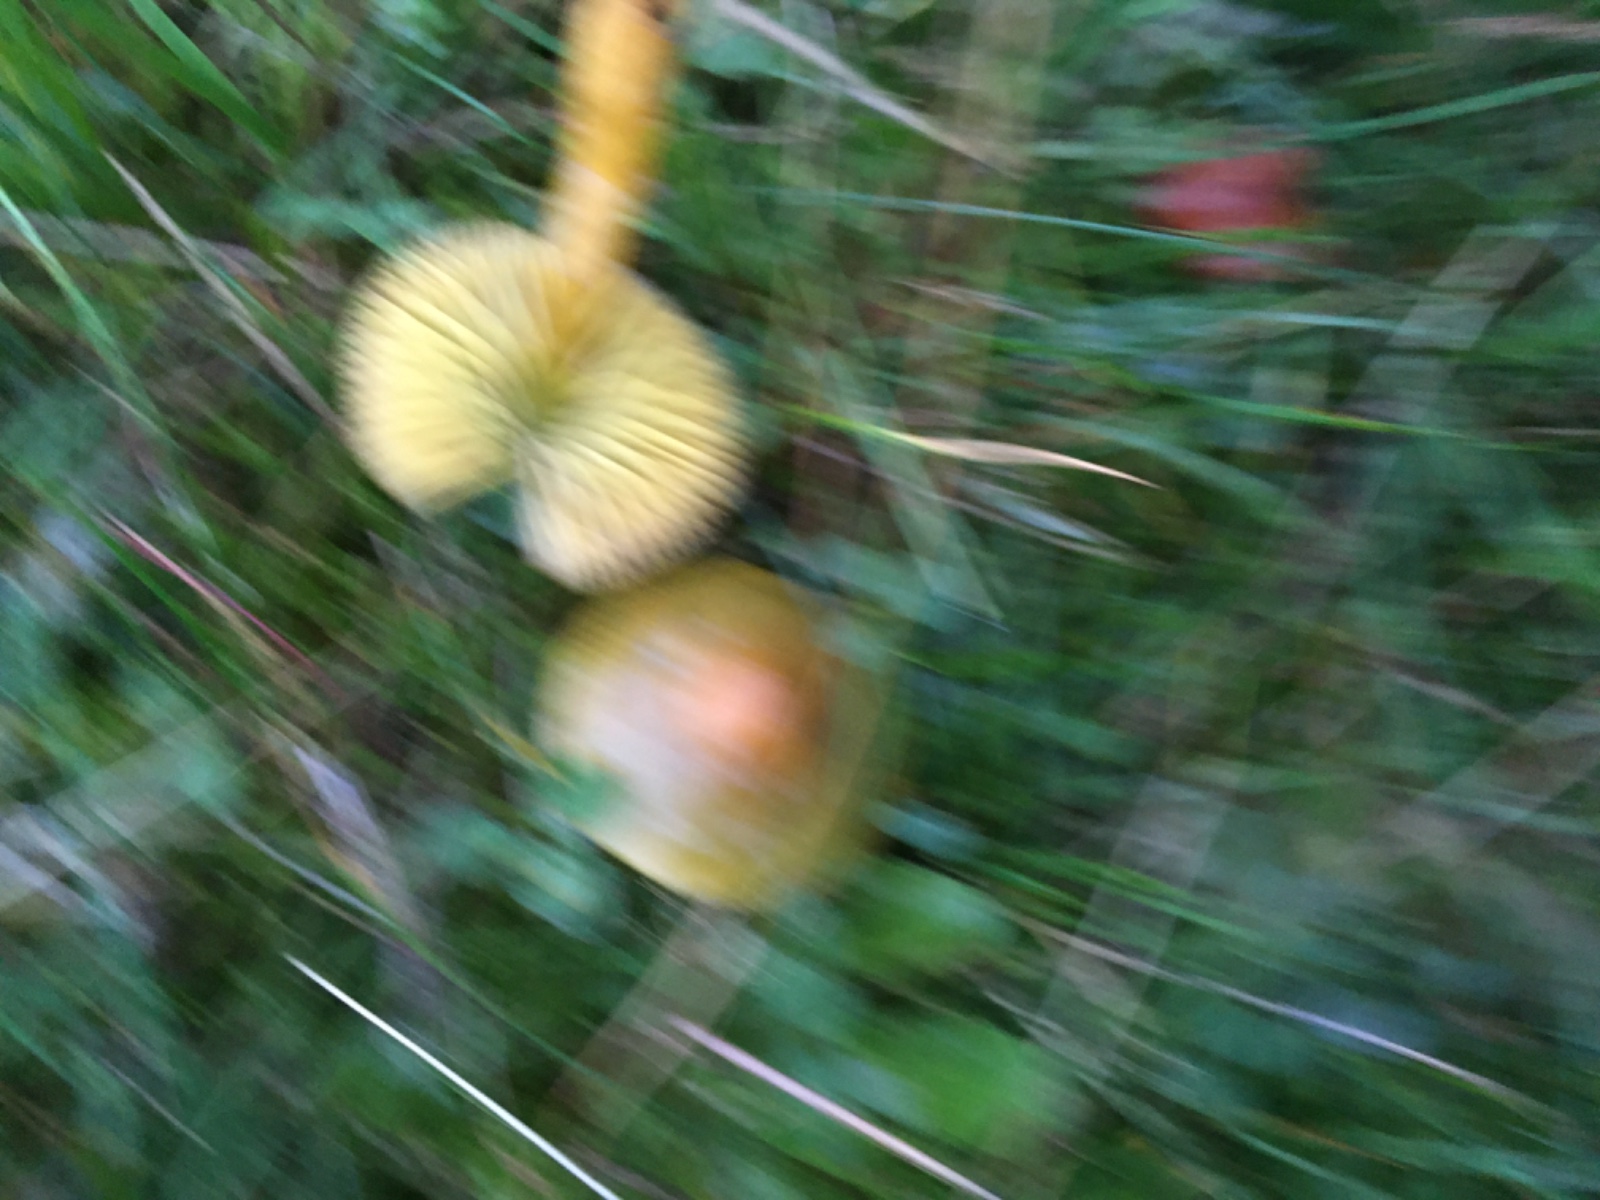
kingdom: Fungi
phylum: Basidiomycota
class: Agaricomycetes
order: Agaricales
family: Hygrophoraceae
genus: Gliophorus
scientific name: Gliophorus psittacinus
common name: papegøje-vokshat
